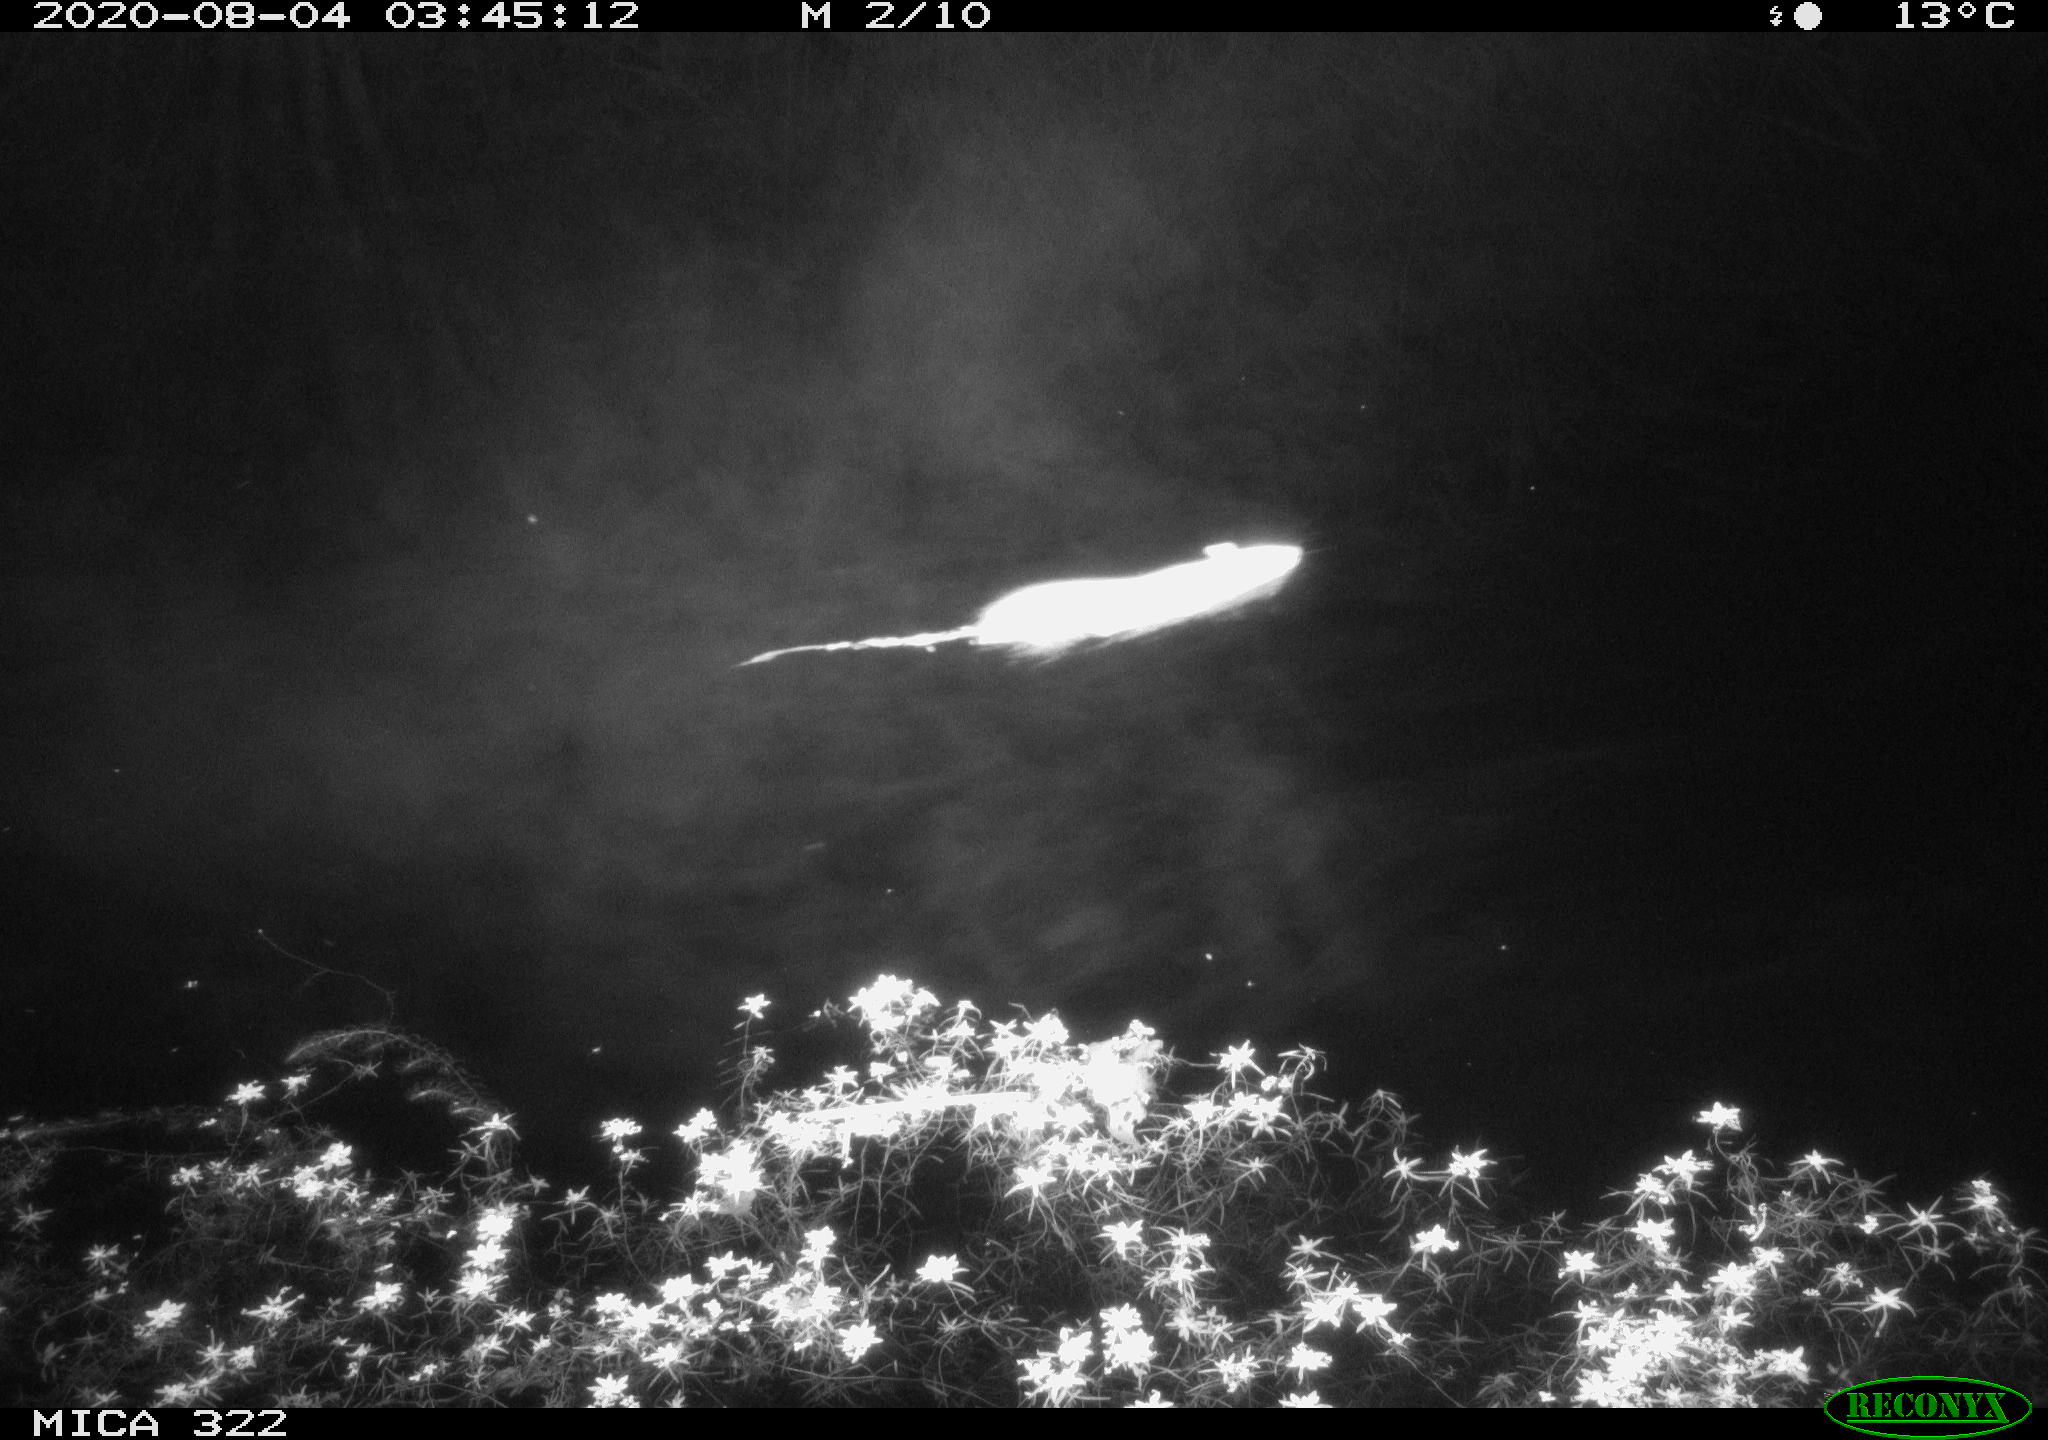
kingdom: Animalia
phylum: Chordata
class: Mammalia
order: Rodentia
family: Muridae
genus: Rattus
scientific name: Rattus norvegicus
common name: Brown rat
